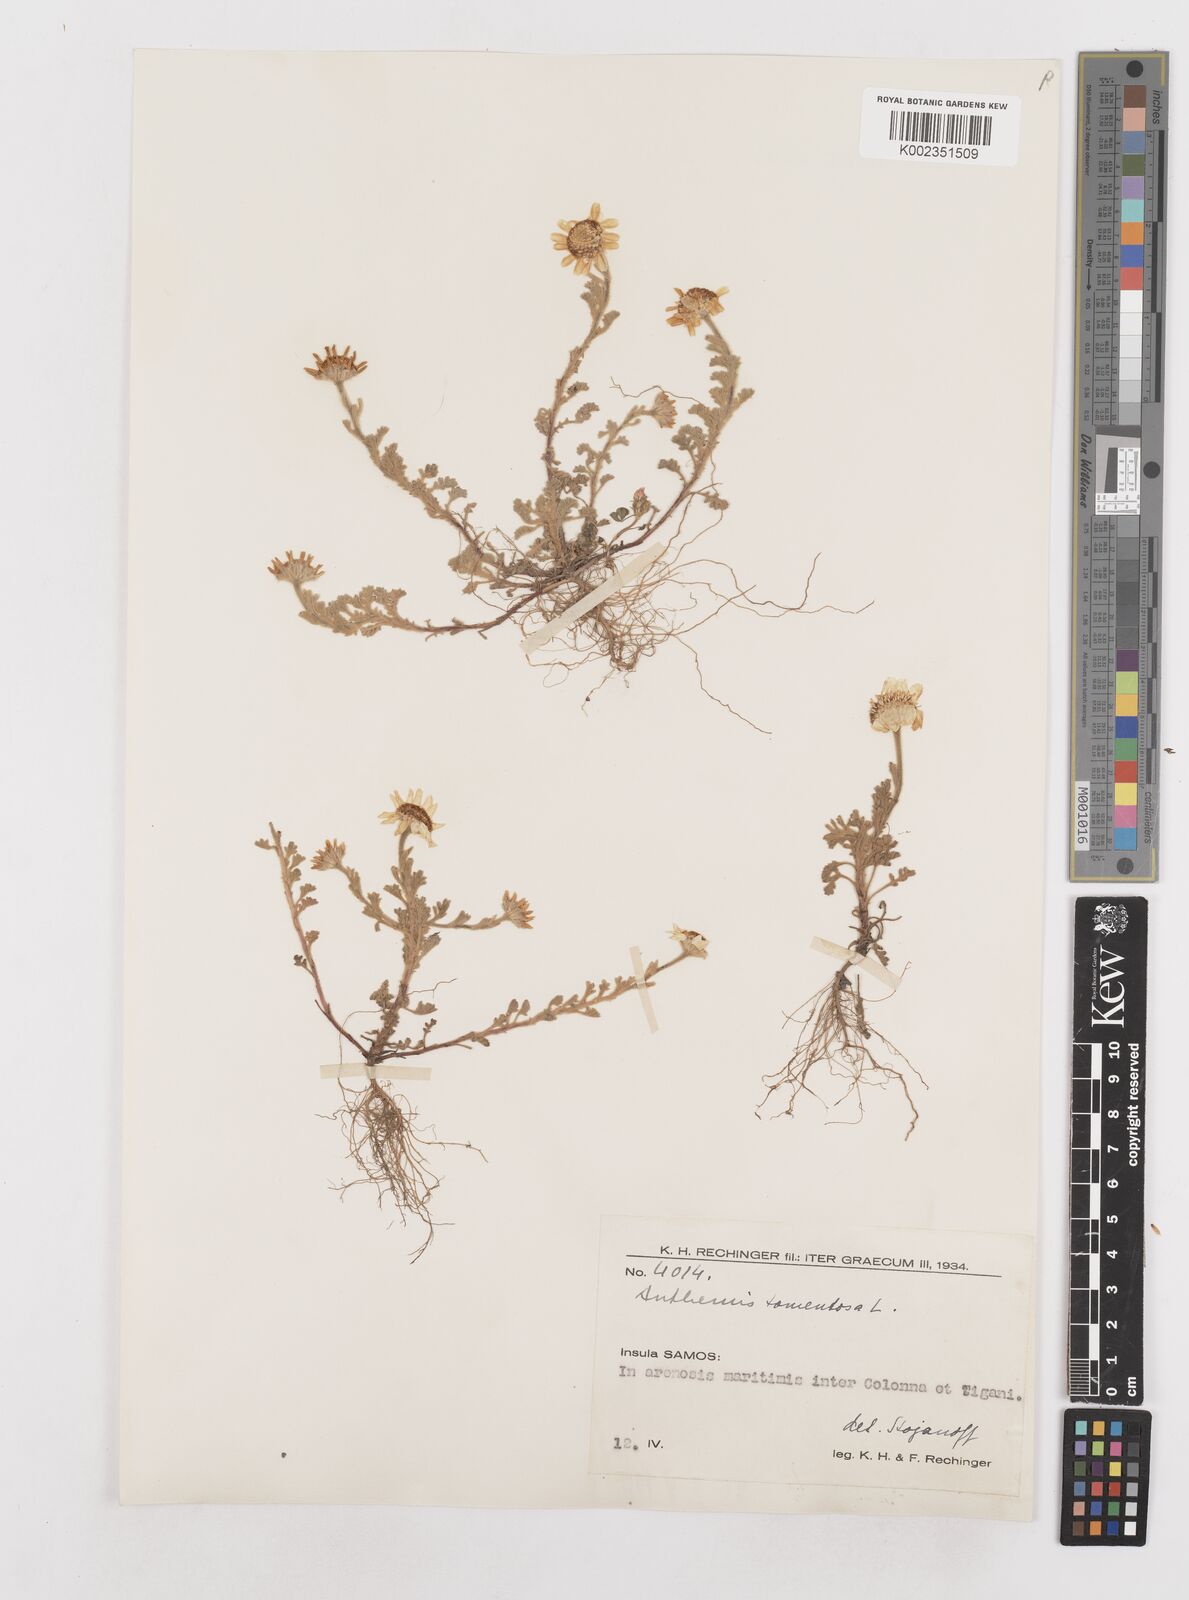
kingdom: Plantae
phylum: Tracheophyta
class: Magnoliopsida
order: Asterales
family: Asteraceae
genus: Anthemis
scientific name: Anthemis tomentosa
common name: Woolly chamomile
